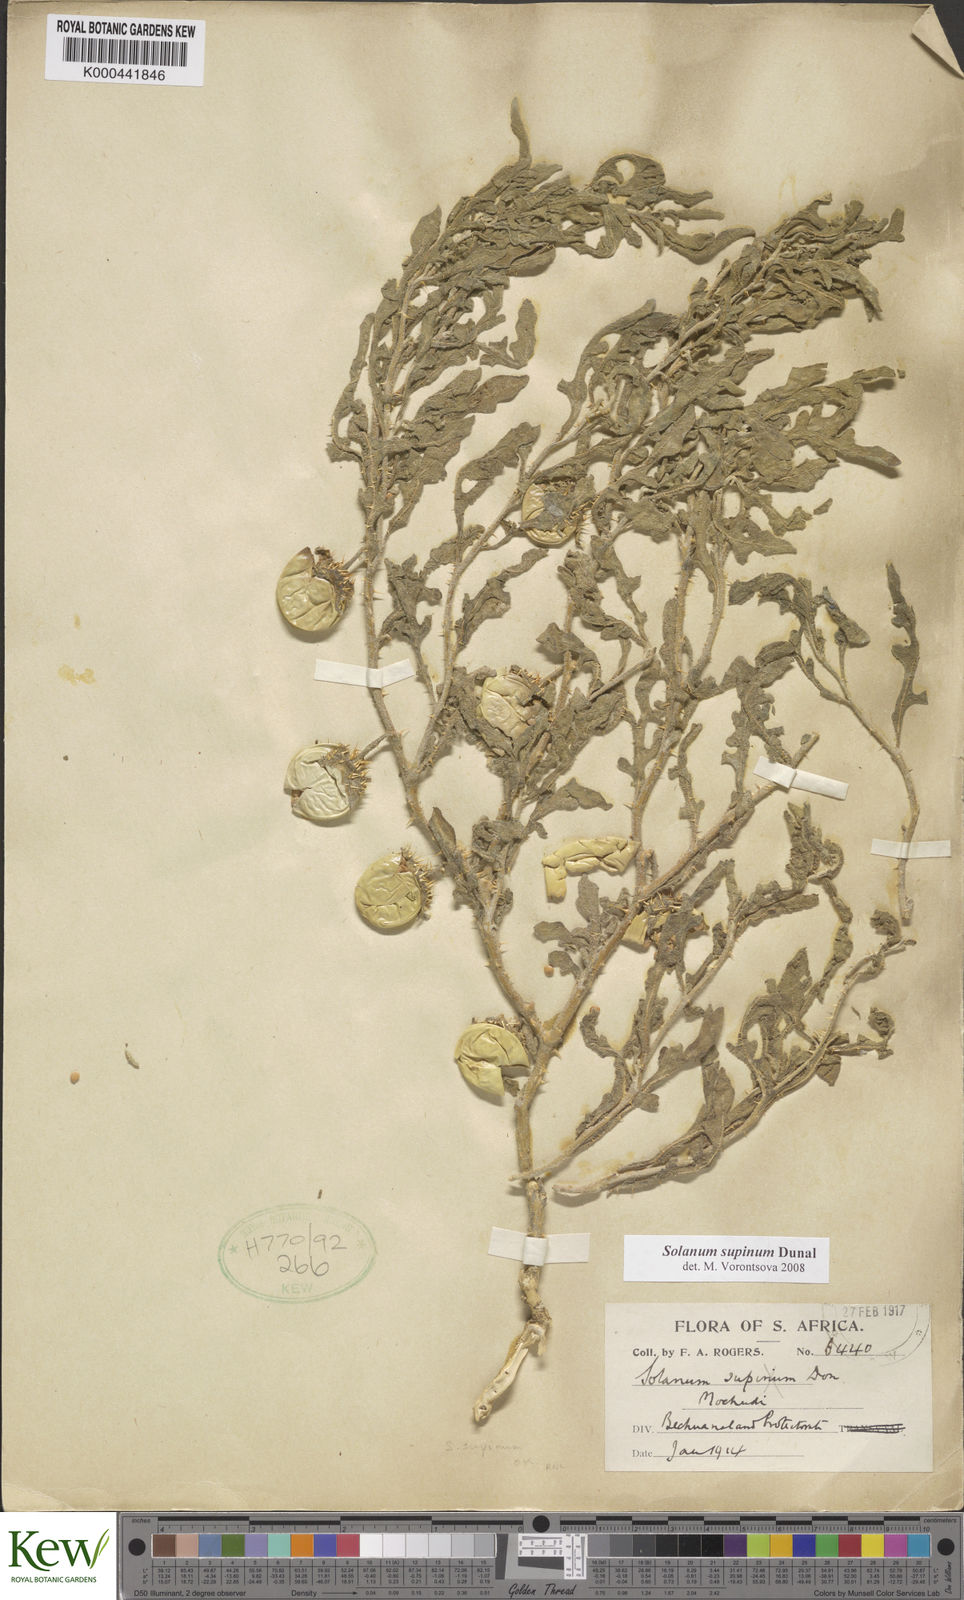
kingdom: Plantae
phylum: Tracheophyta
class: Magnoliopsida
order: Solanales
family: Solanaceae
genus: Solanum
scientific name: Solanum supinum
